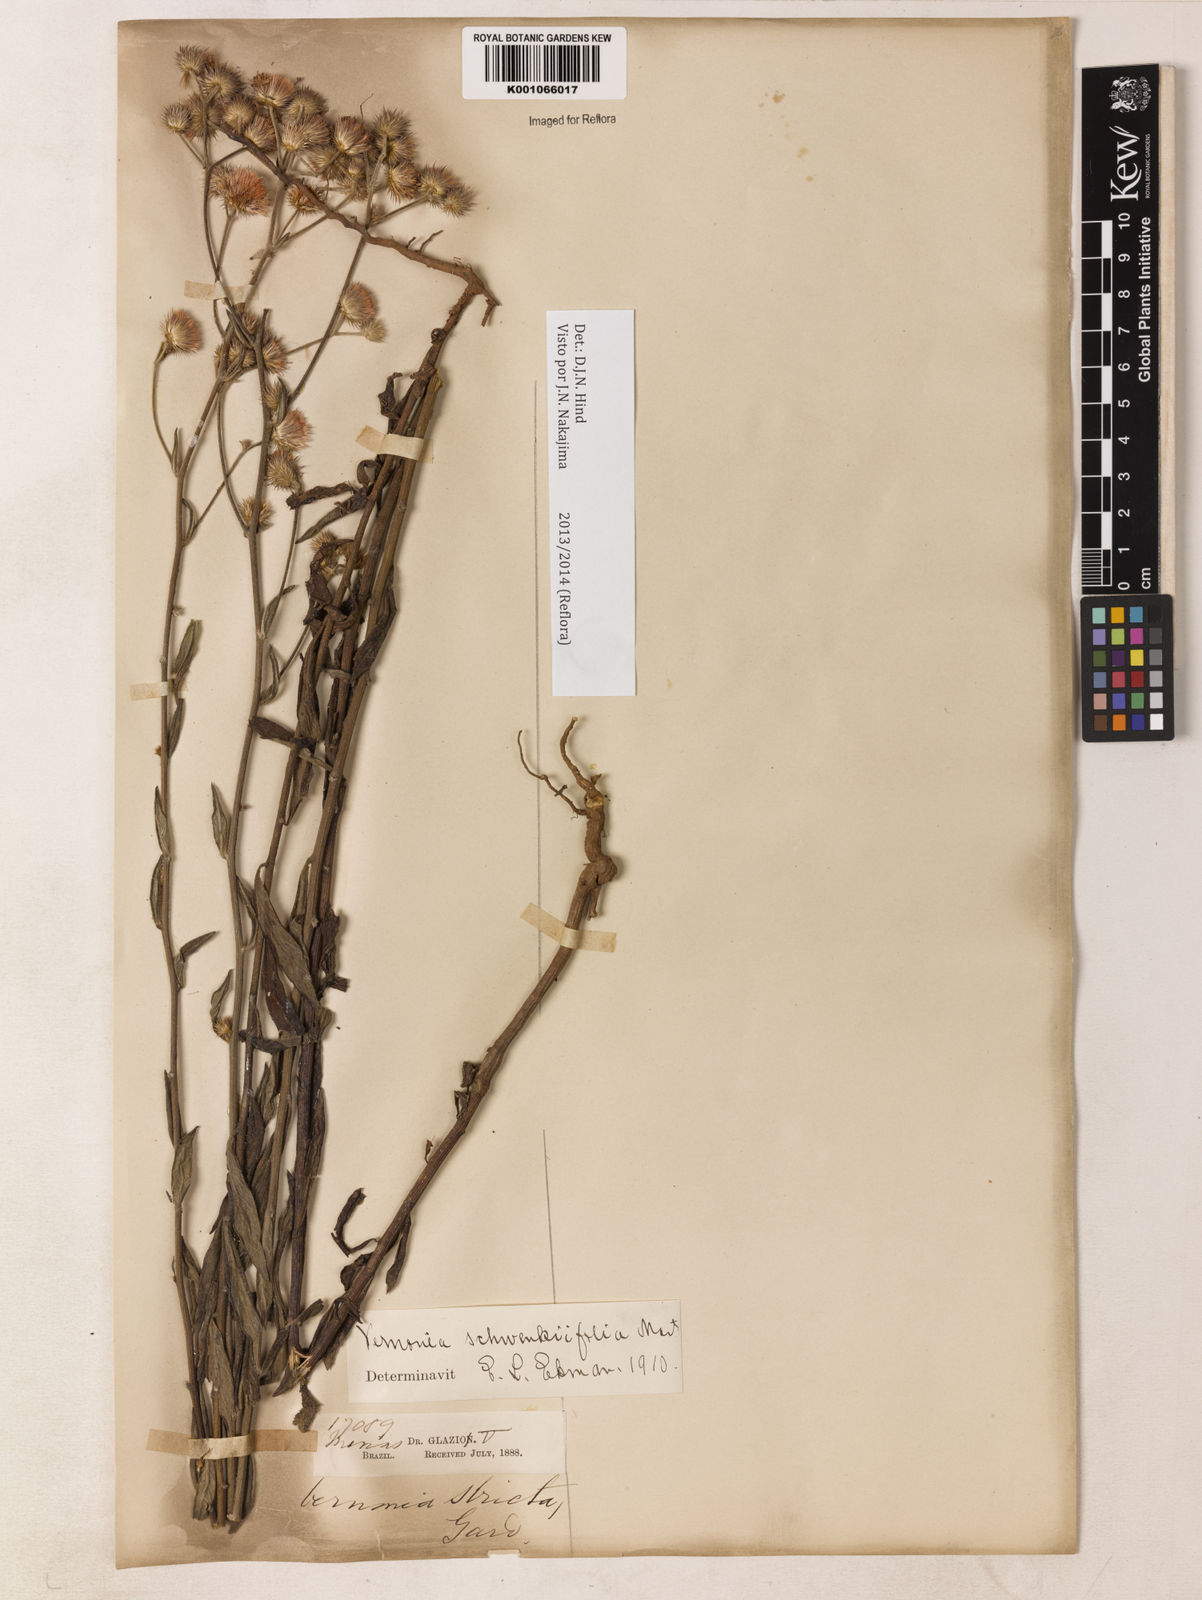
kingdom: Plantae
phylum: Tracheophyta
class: Magnoliopsida
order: Asterales
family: Asteraceae
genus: Vernonia
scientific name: Vernonia
